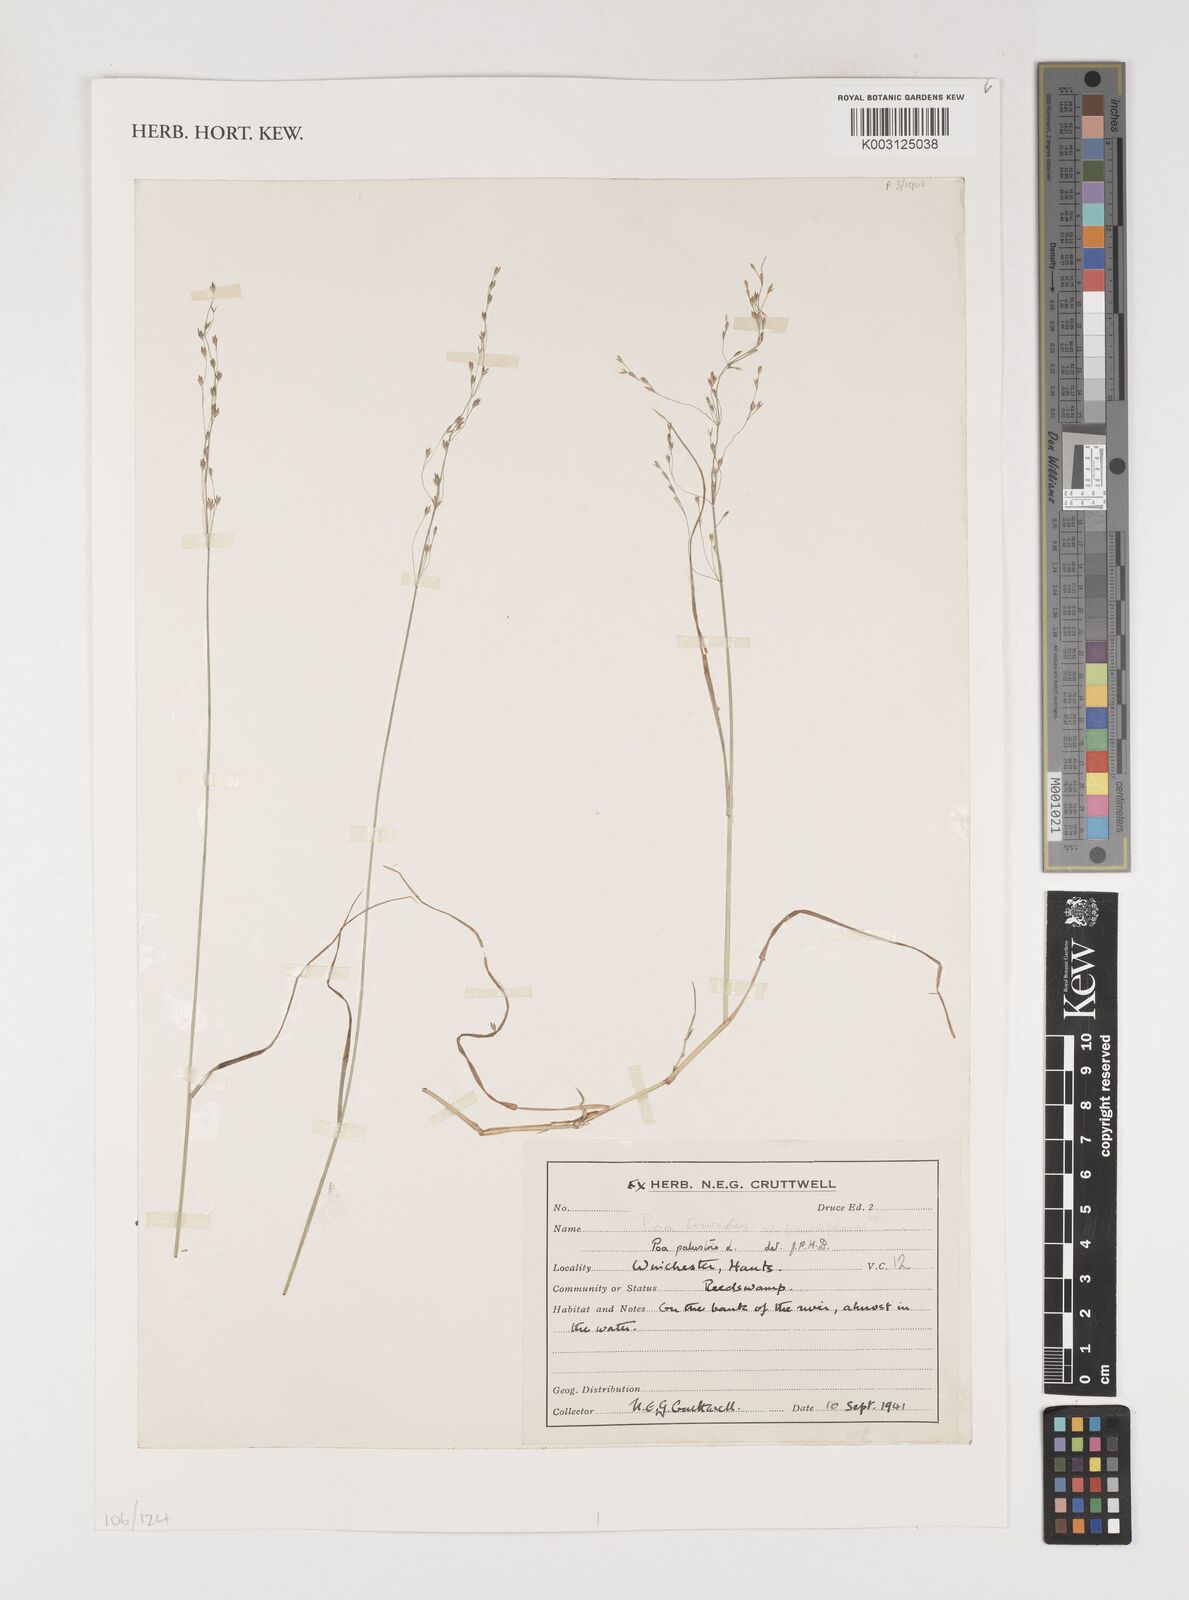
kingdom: Plantae
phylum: Tracheophyta
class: Liliopsida
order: Poales
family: Poaceae
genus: Poa
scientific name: Poa trivialis
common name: Rough bluegrass
